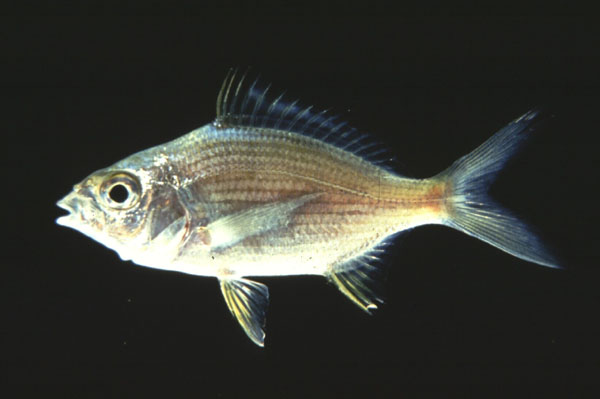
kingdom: Animalia
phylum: Chordata
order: Perciformes
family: Gerreidae
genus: Gerres
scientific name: Gerres methueni
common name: Longtail silverbiddy
